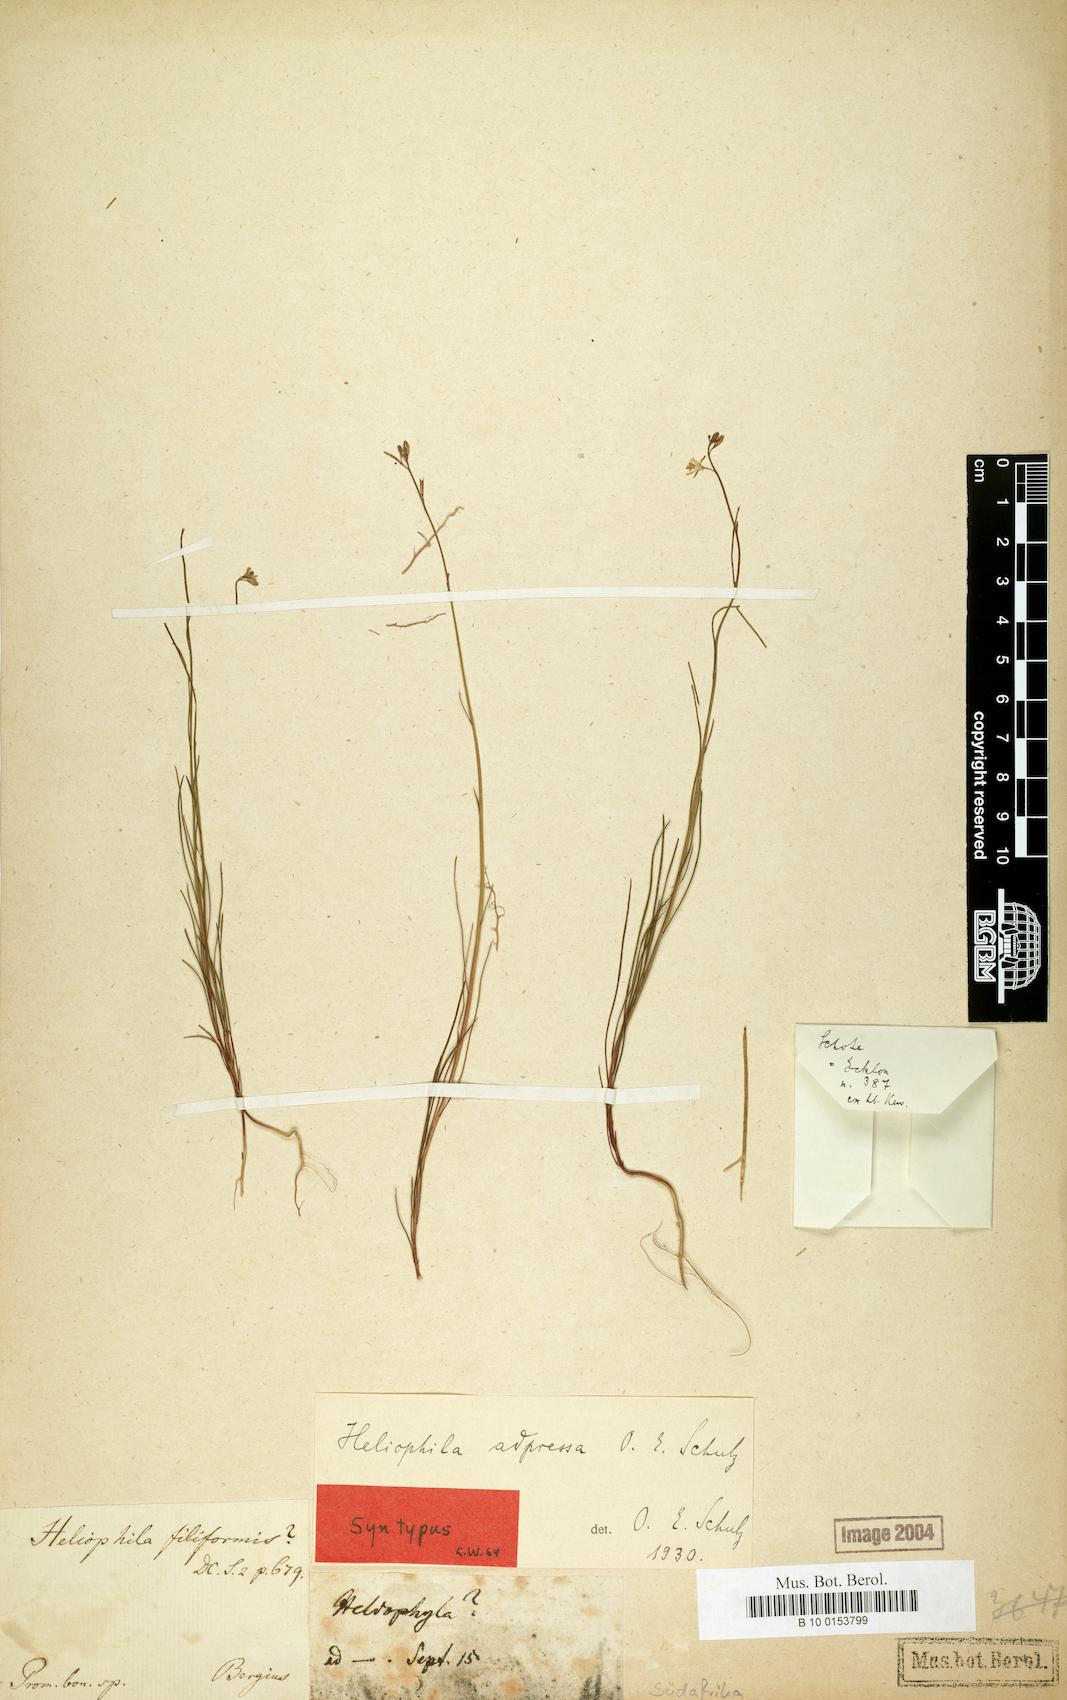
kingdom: Plantae
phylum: Tracheophyta
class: Magnoliopsida
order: Brassicales
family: Brassicaceae
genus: Heliophila
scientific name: Heliophila adpressa
